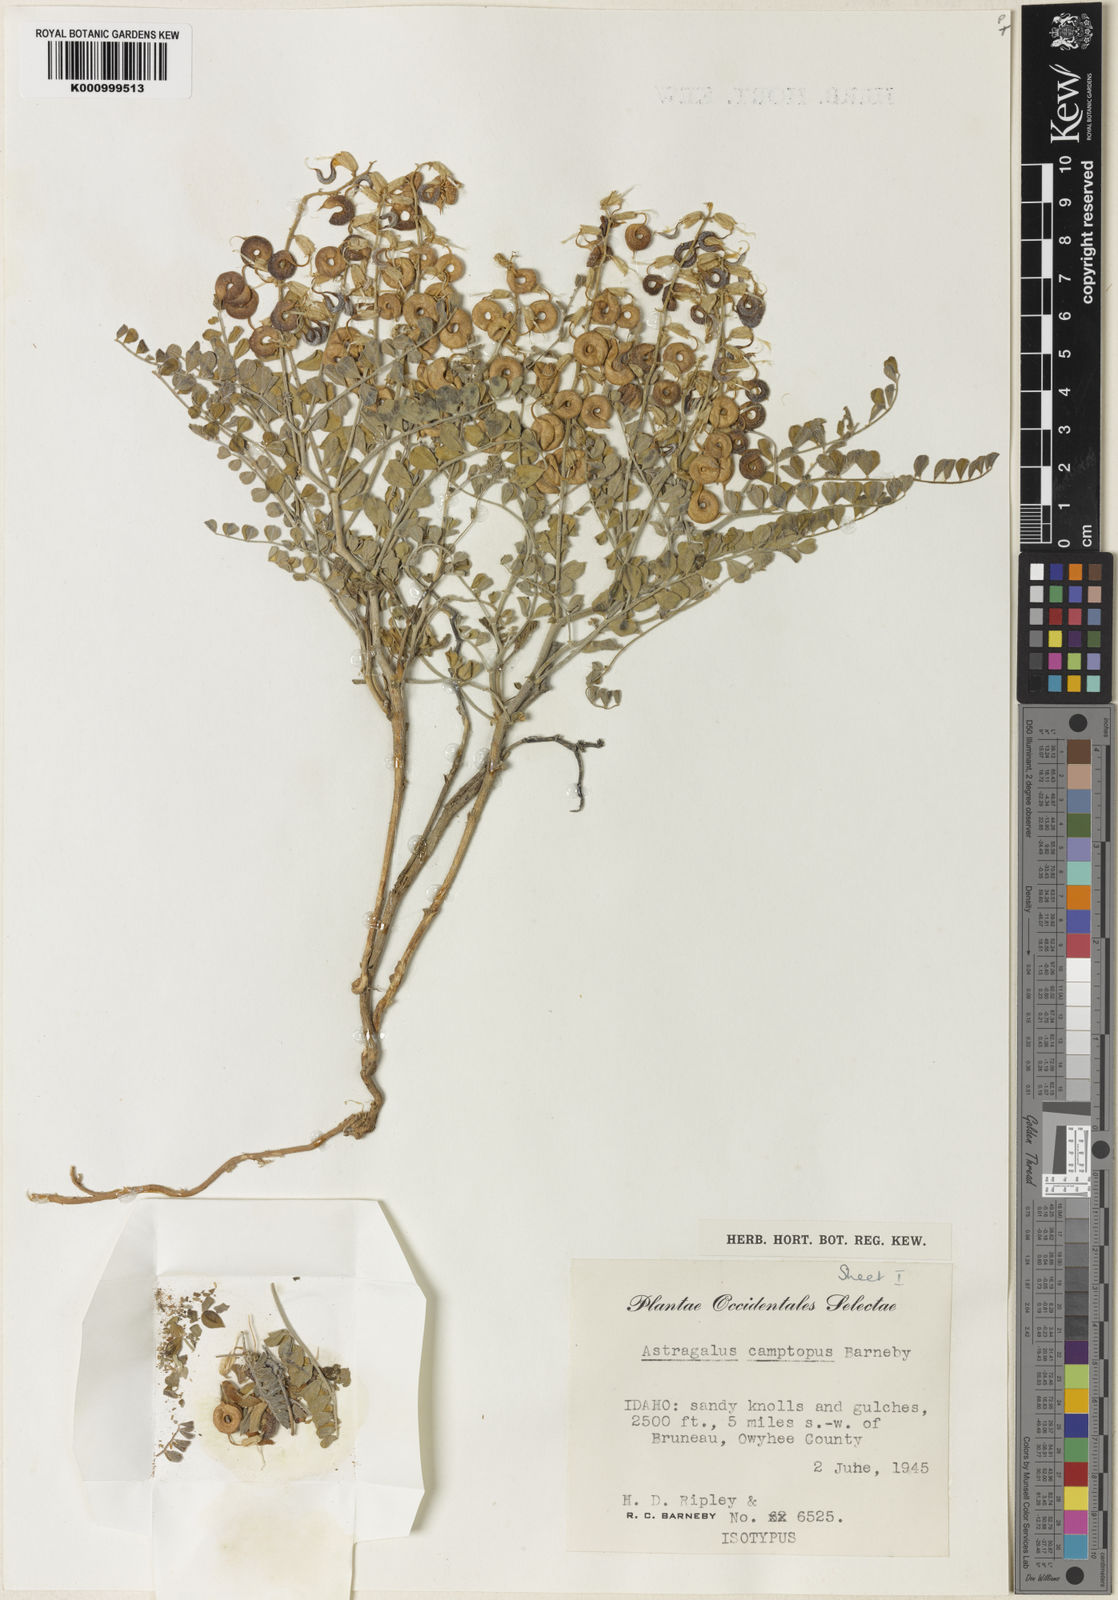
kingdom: Plantae
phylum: Tracheophyta
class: Magnoliopsida
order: Fabales
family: Fabaceae
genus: Astragalus
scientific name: Astragalus camptopus
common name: Bruneau milk-vetch
